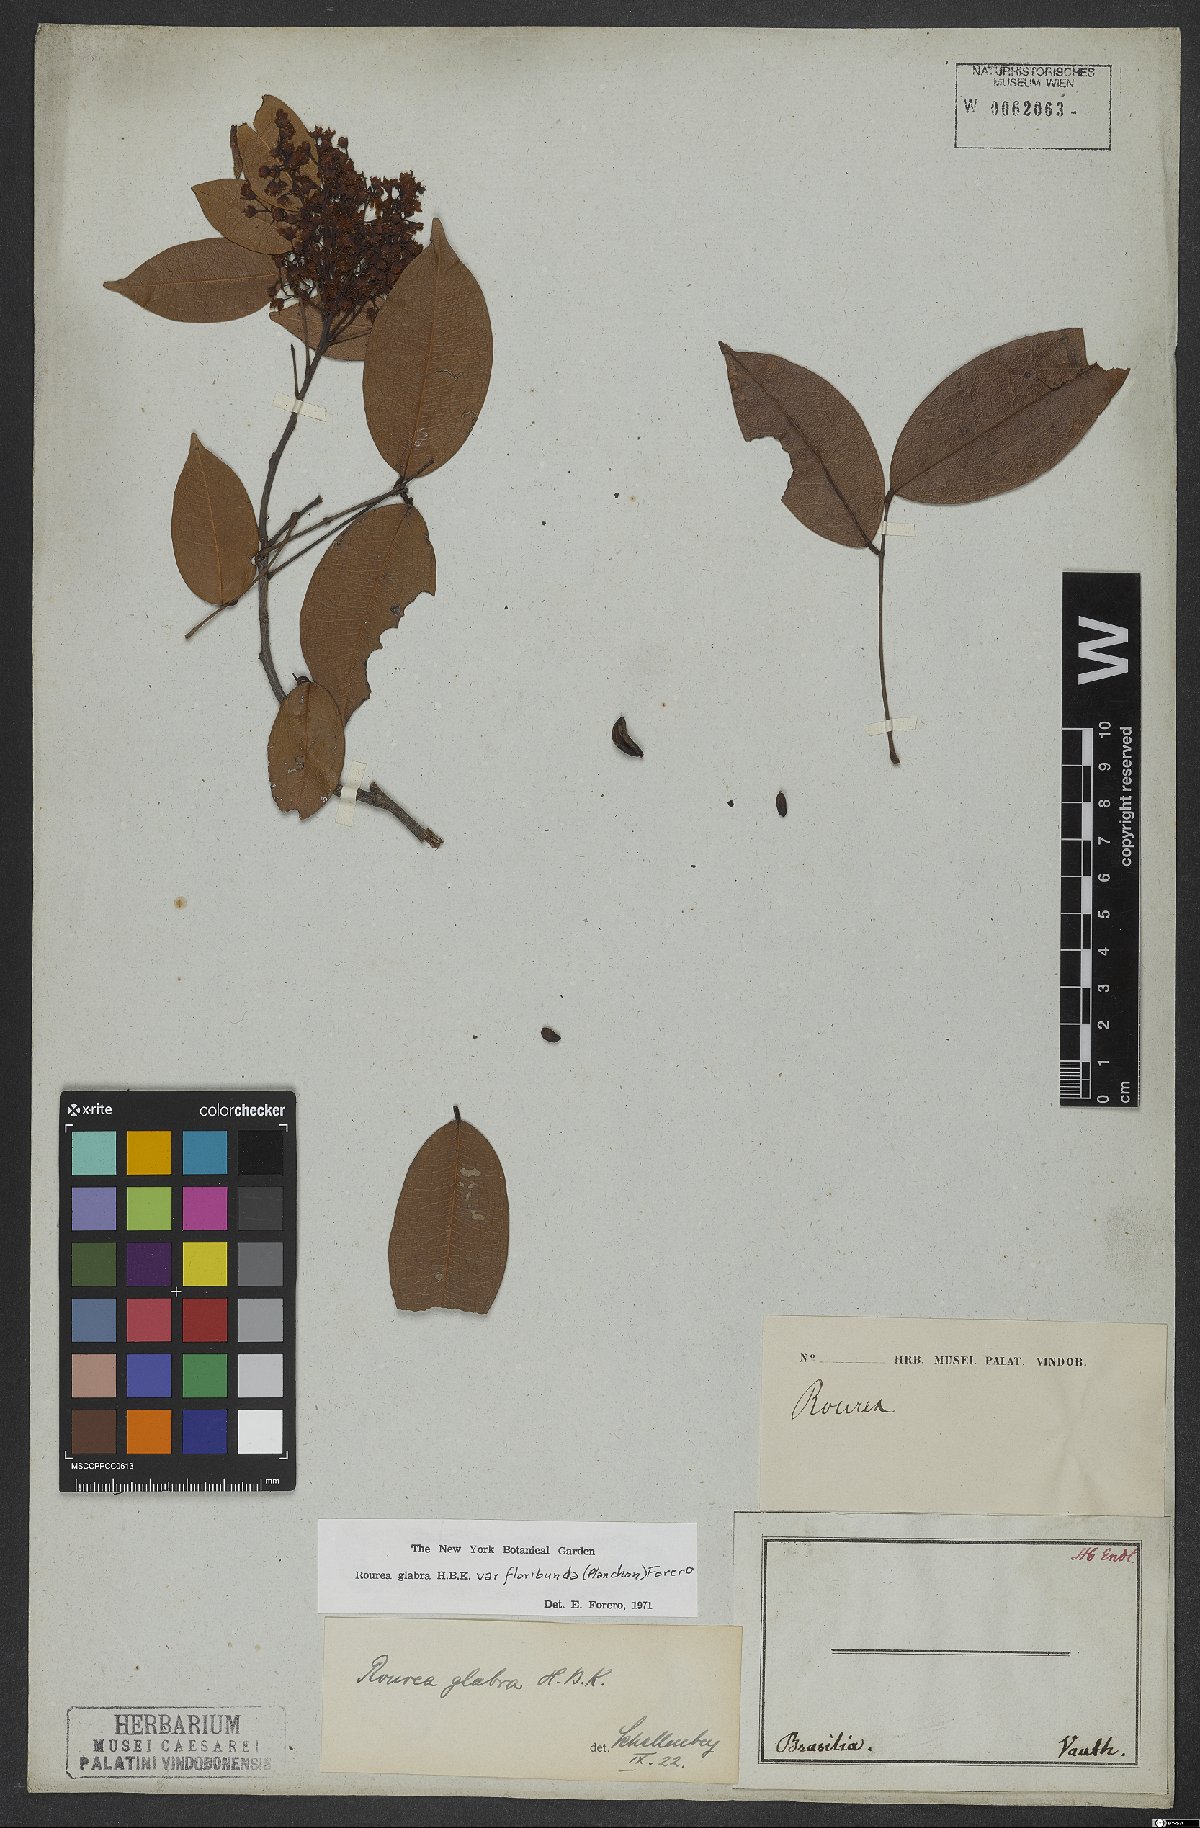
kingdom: Plantae
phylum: Tracheophyta
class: Magnoliopsida
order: Oxalidales
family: Connaraceae
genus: Rourea
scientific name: Rourea glabra
